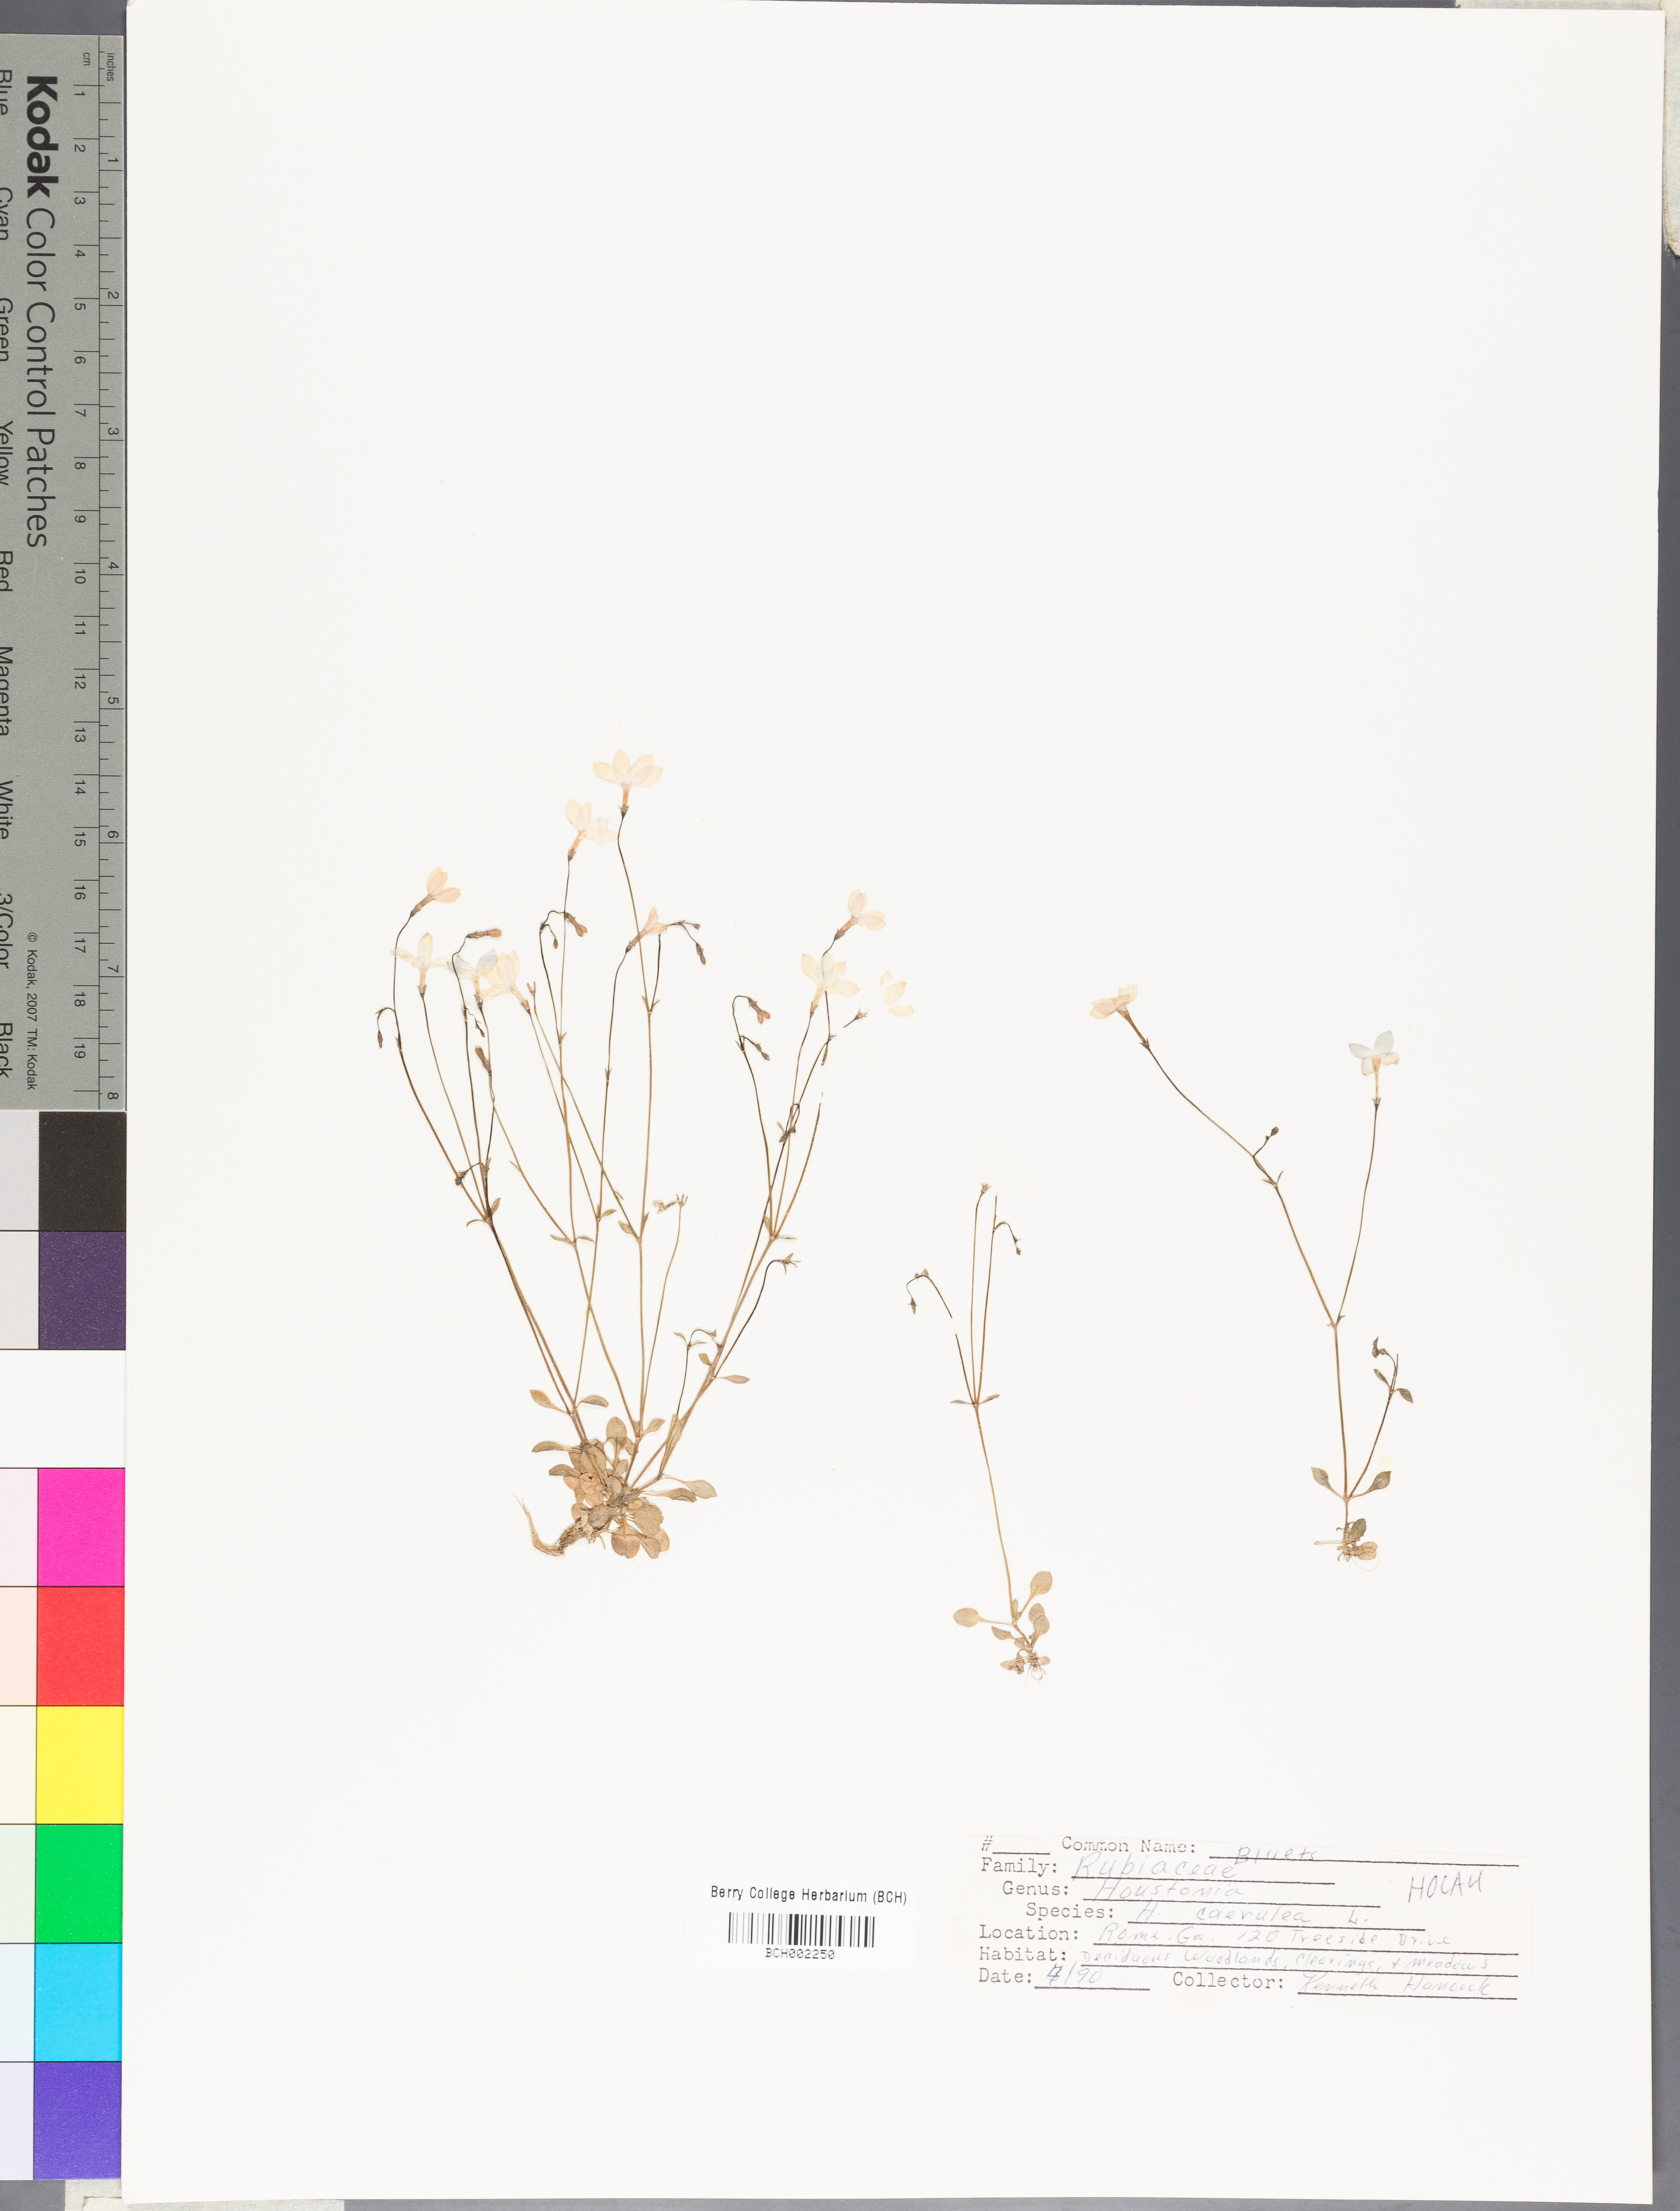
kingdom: Plantae
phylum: Tracheophyta
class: Magnoliopsida
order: Gentianales
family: Rubiaceae
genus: Houstonia
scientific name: Houstonia caerulea
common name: Bluets
